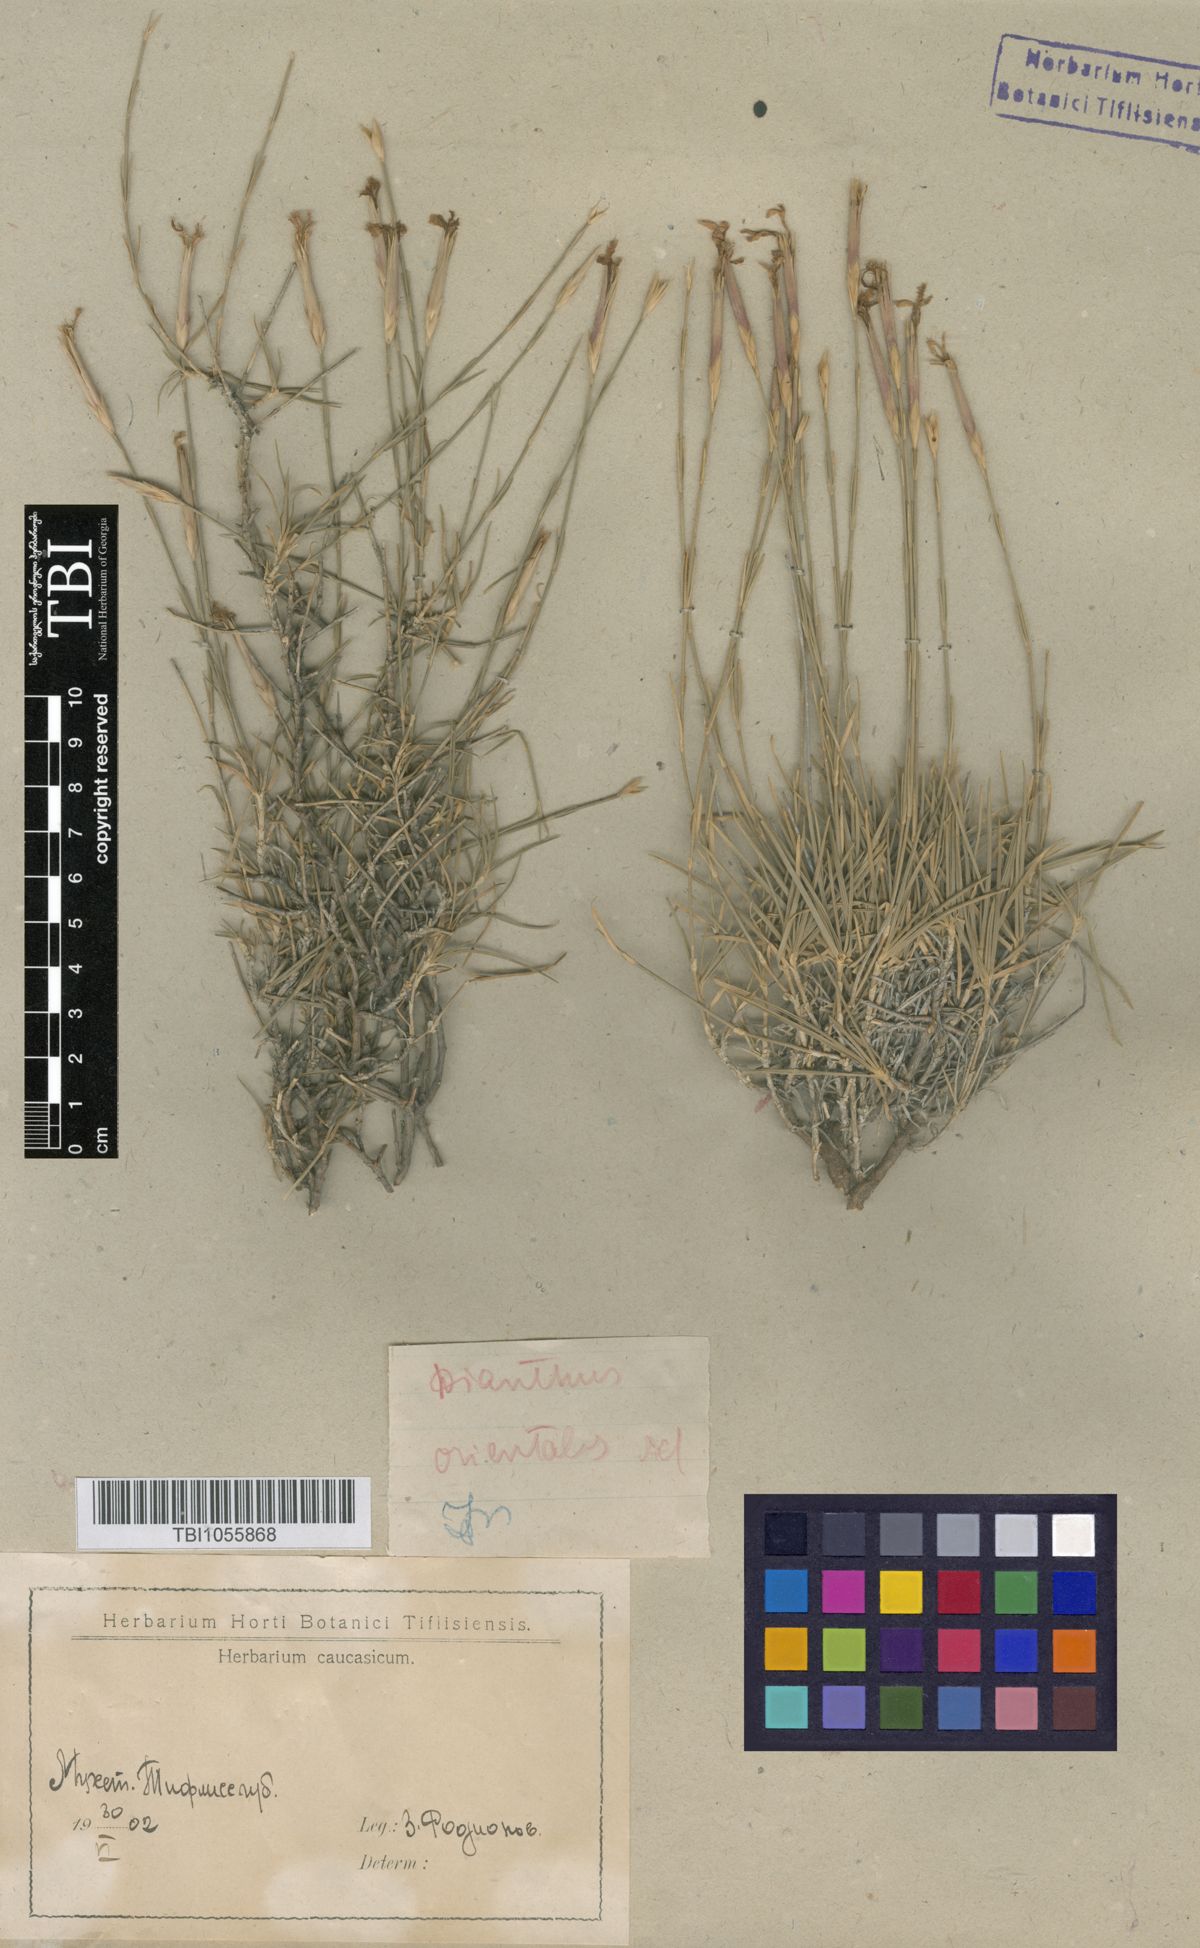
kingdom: Plantae
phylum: Tracheophyta
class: Magnoliopsida
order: Caryophyllales
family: Caryophyllaceae
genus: Dianthus
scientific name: Dianthus orientalis
